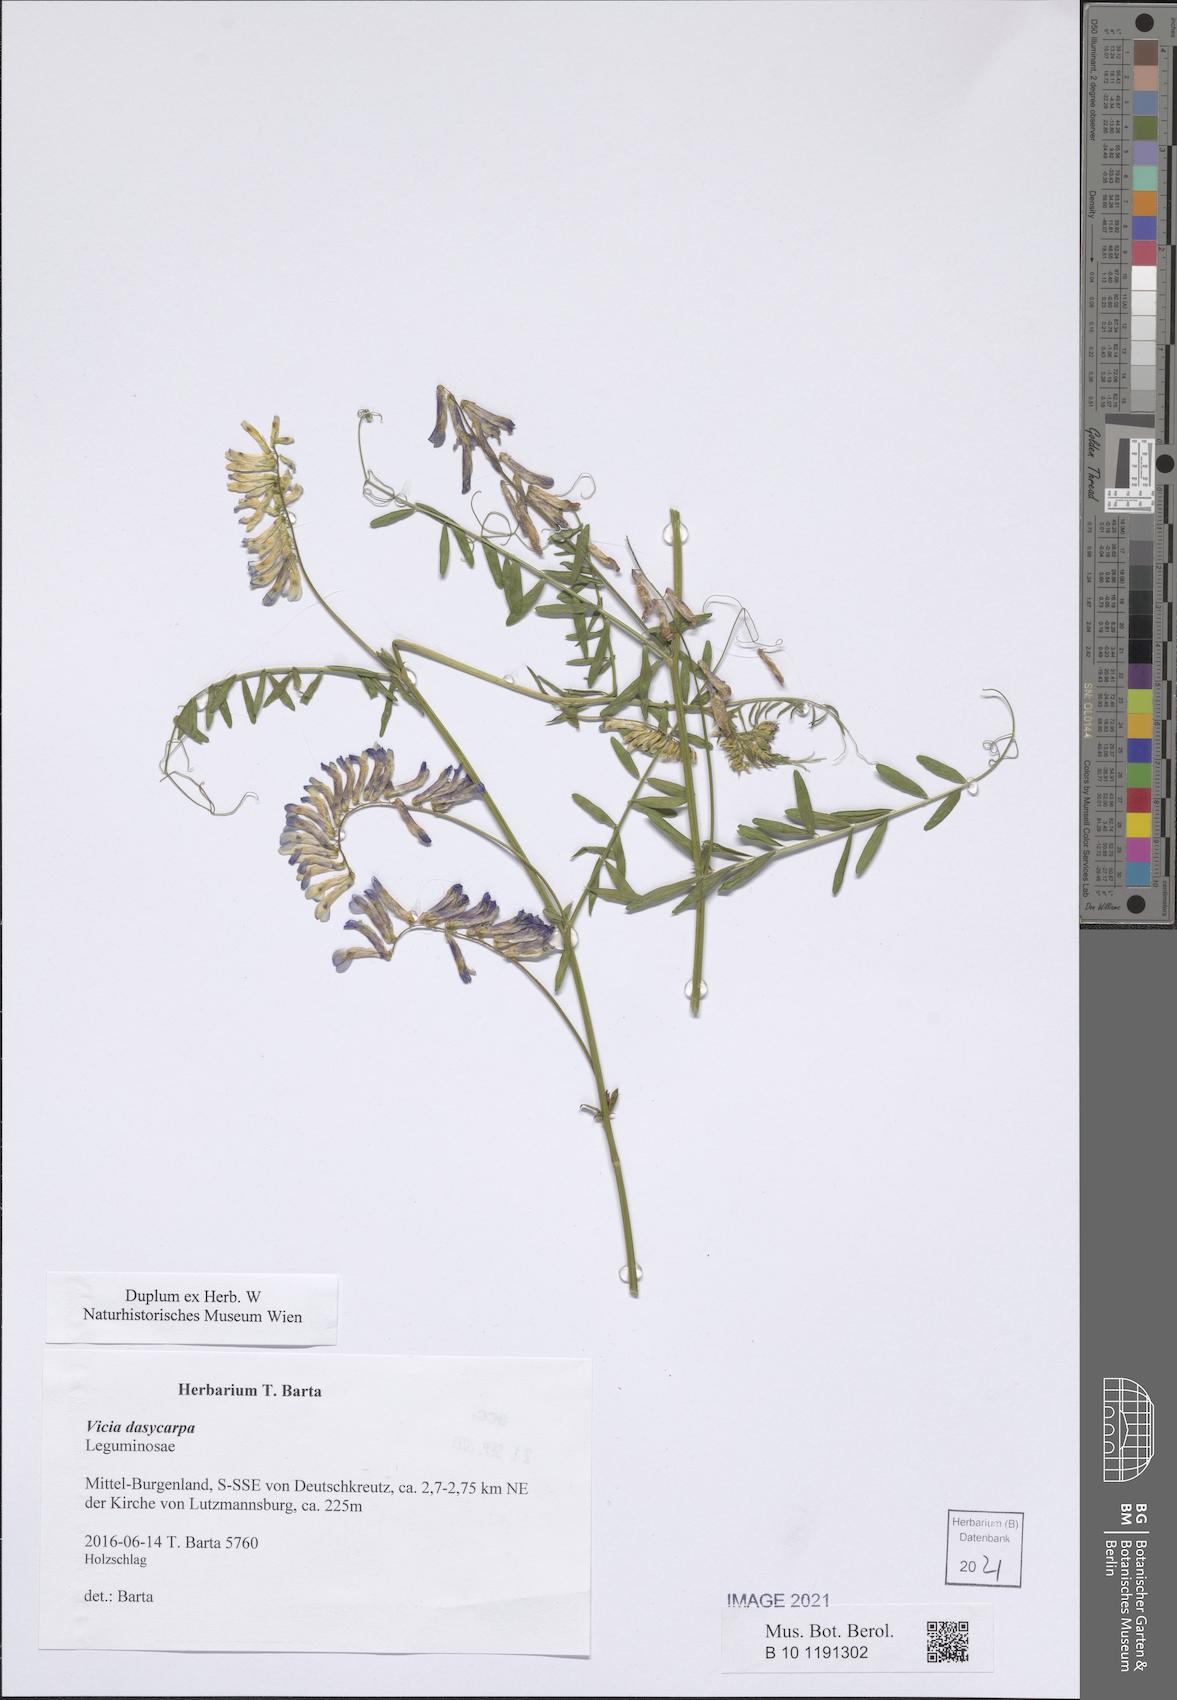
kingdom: Plantae
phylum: Tracheophyta
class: Magnoliopsida
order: Fabales
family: Fabaceae
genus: Vicia
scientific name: Vicia villosa
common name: Fodder vetch
